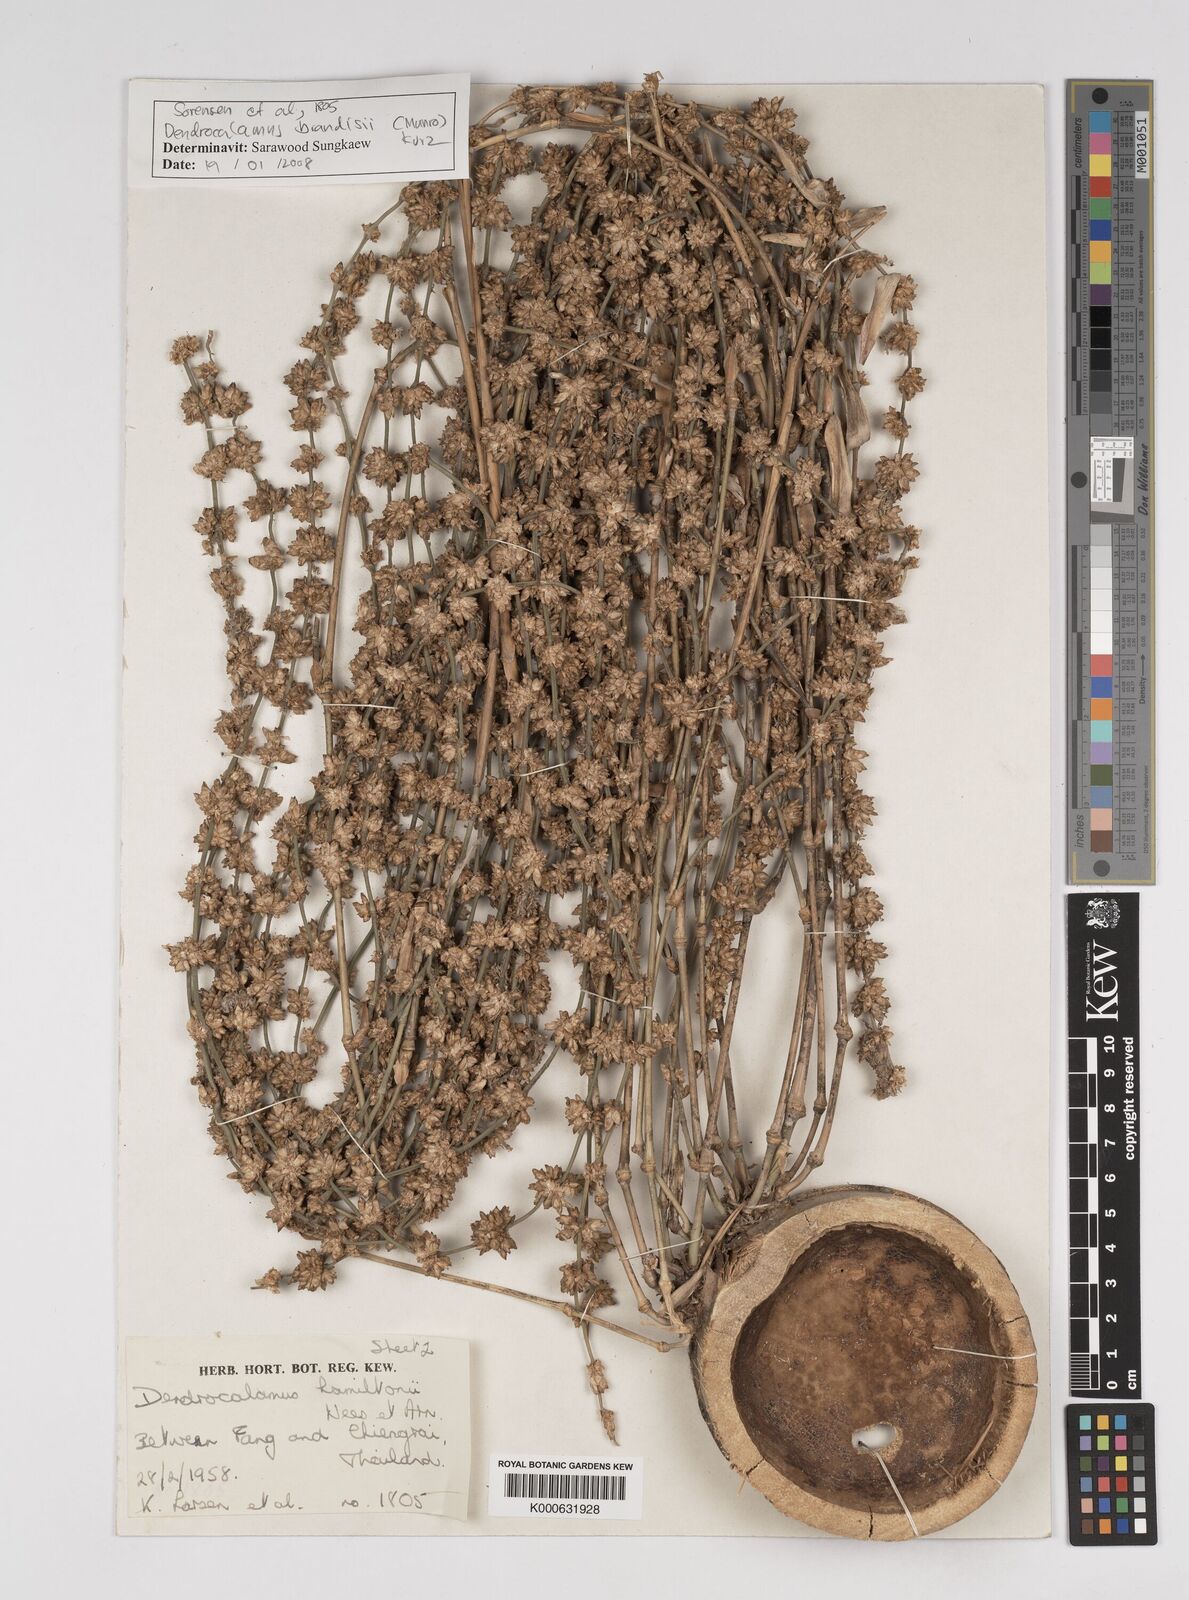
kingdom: Plantae
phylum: Tracheophyta
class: Liliopsida
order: Poales
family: Poaceae
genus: Dendrocalamus
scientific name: Dendrocalamus brandisii
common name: Velvetleaf bamboo
